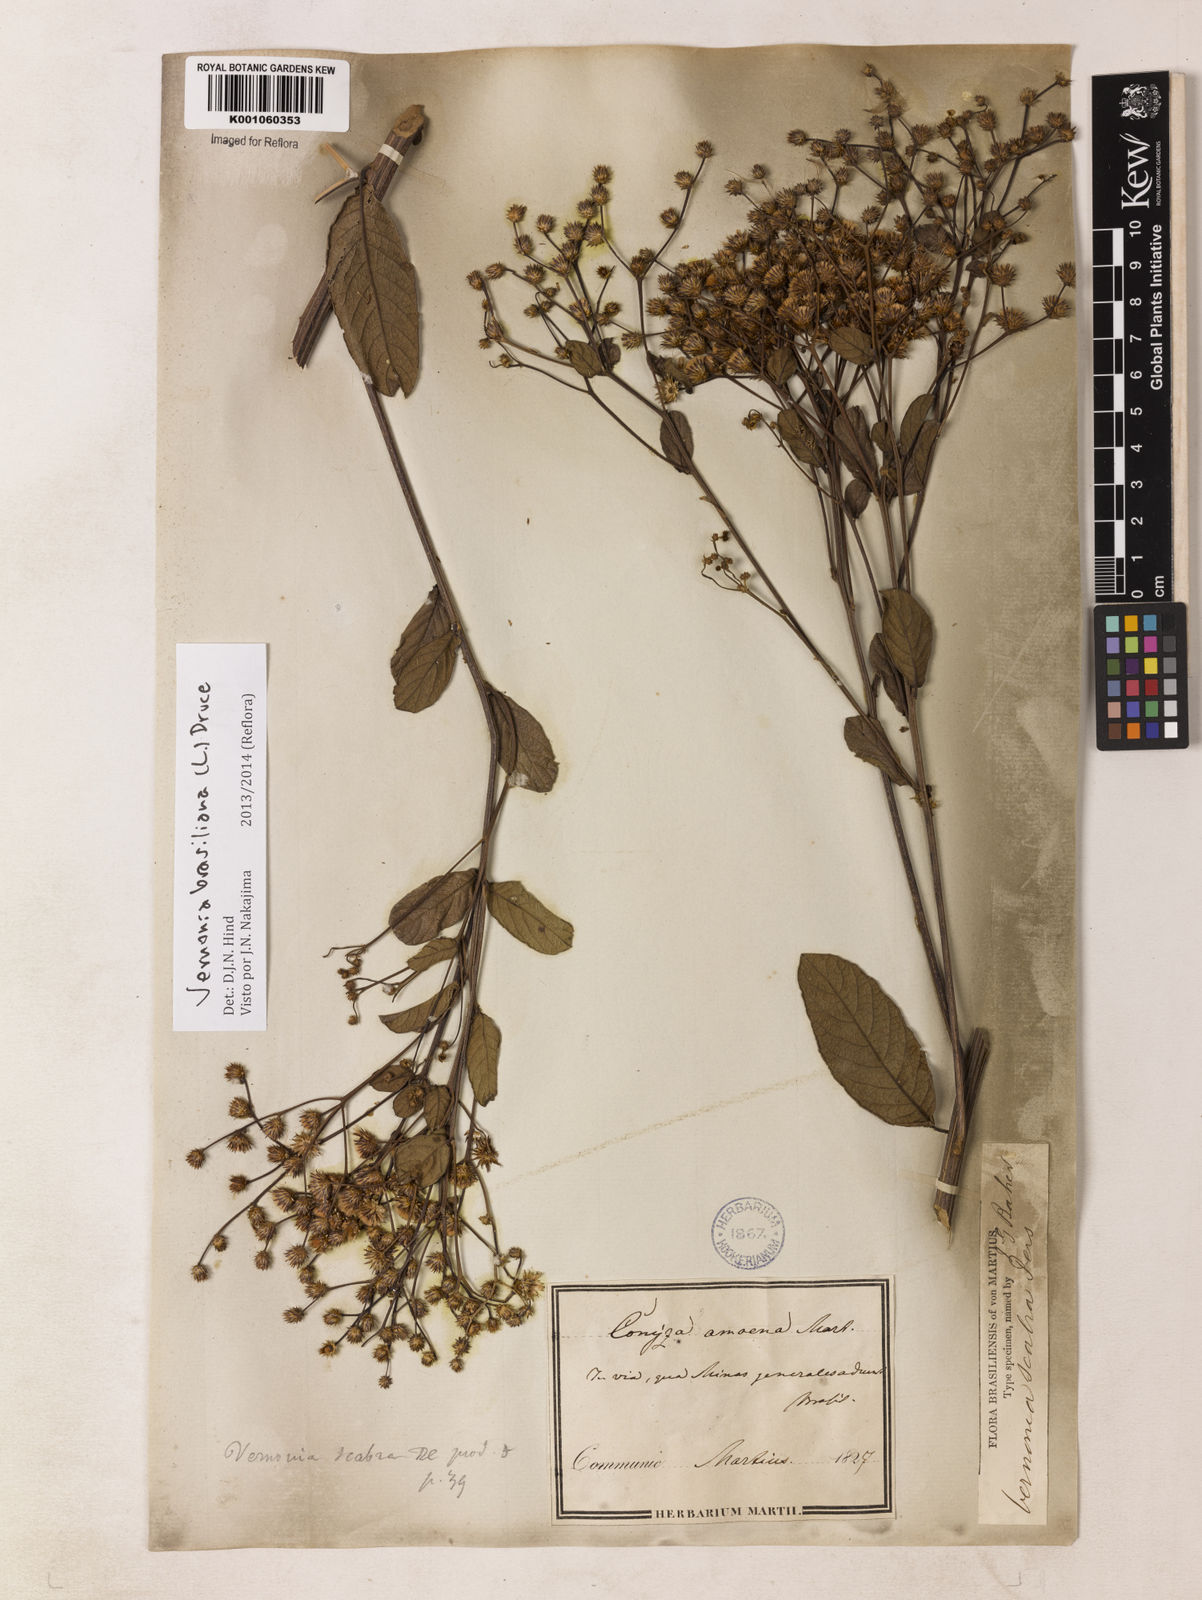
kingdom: Plantae
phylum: Tracheophyta
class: Magnoliopsida
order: Asterales
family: Asteraceae
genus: Vernonanthura
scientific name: Vernonanthura brasiliana
